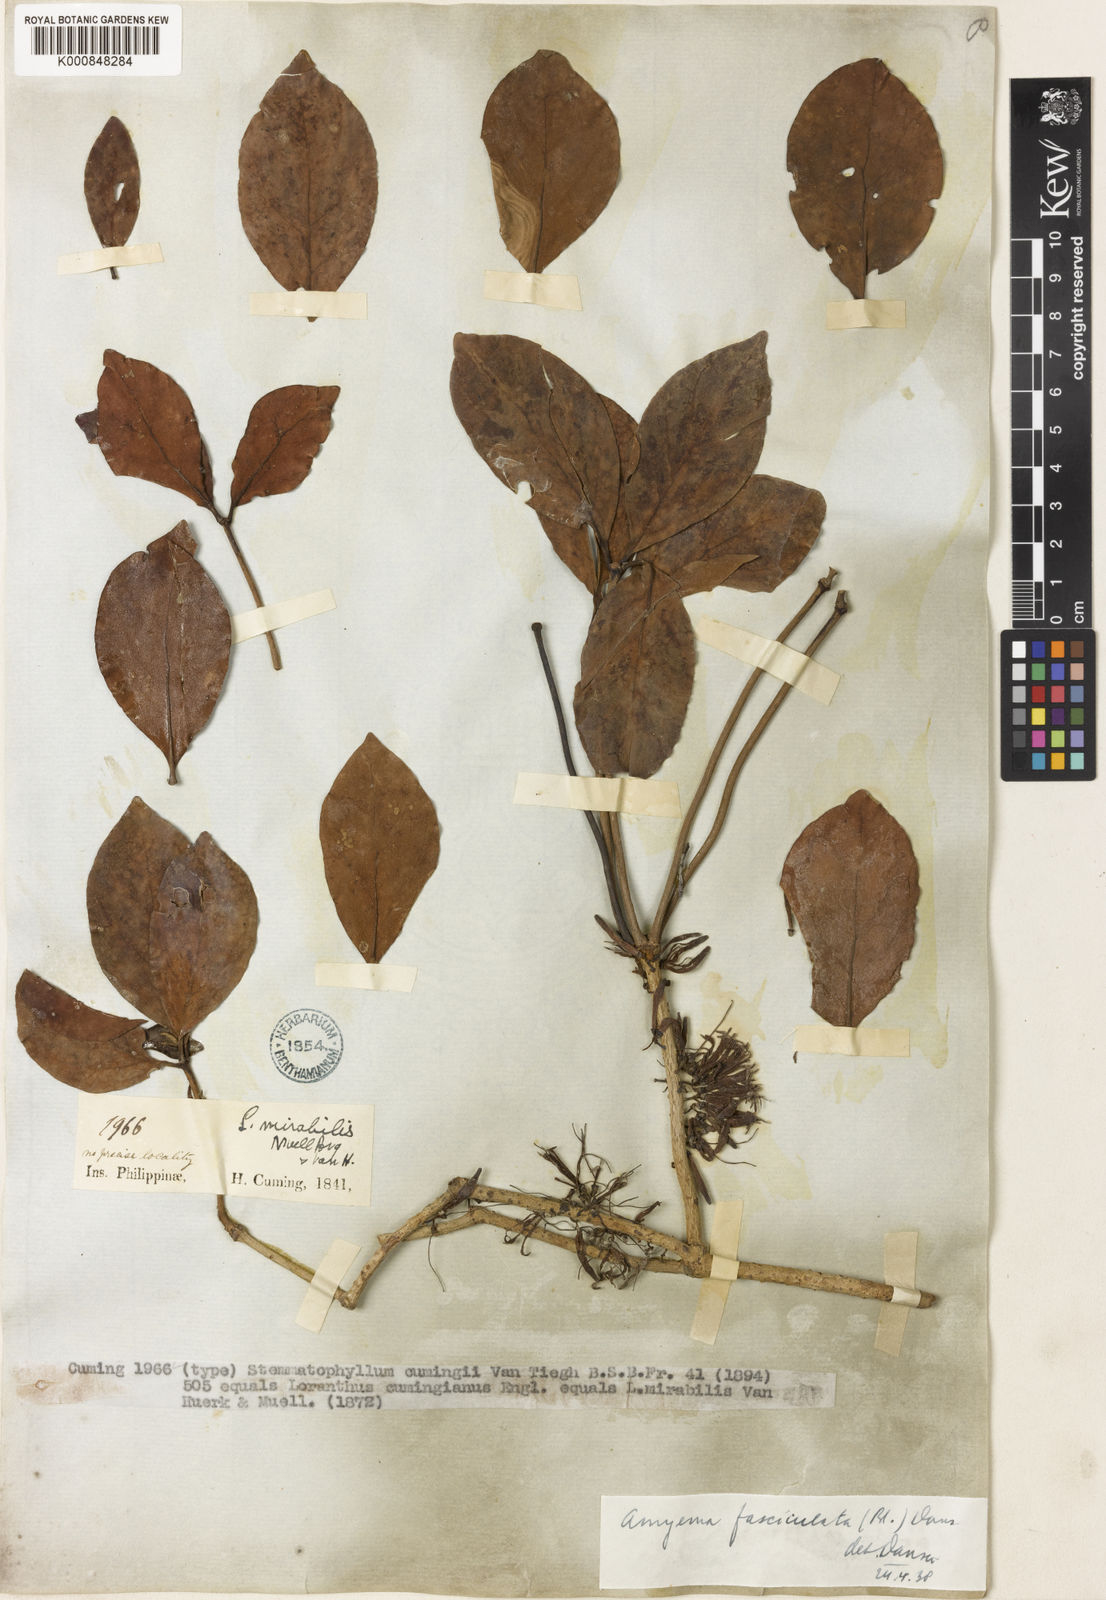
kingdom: Plantae
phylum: Tracheophyta
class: Magnoliopsida
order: Santalales
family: Loranthaceae
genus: Amyema
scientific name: Amyema fasciculata
